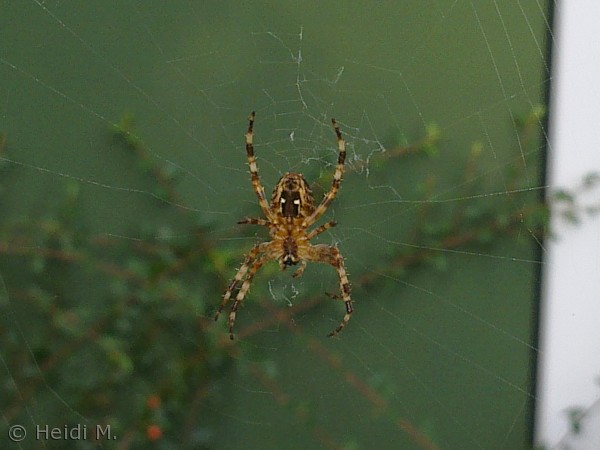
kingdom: Animalia
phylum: Arthropoda
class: Arachnida
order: Araneae
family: Araneidae
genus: Araneus
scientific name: Araneus diadematus
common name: Korsedderkop
